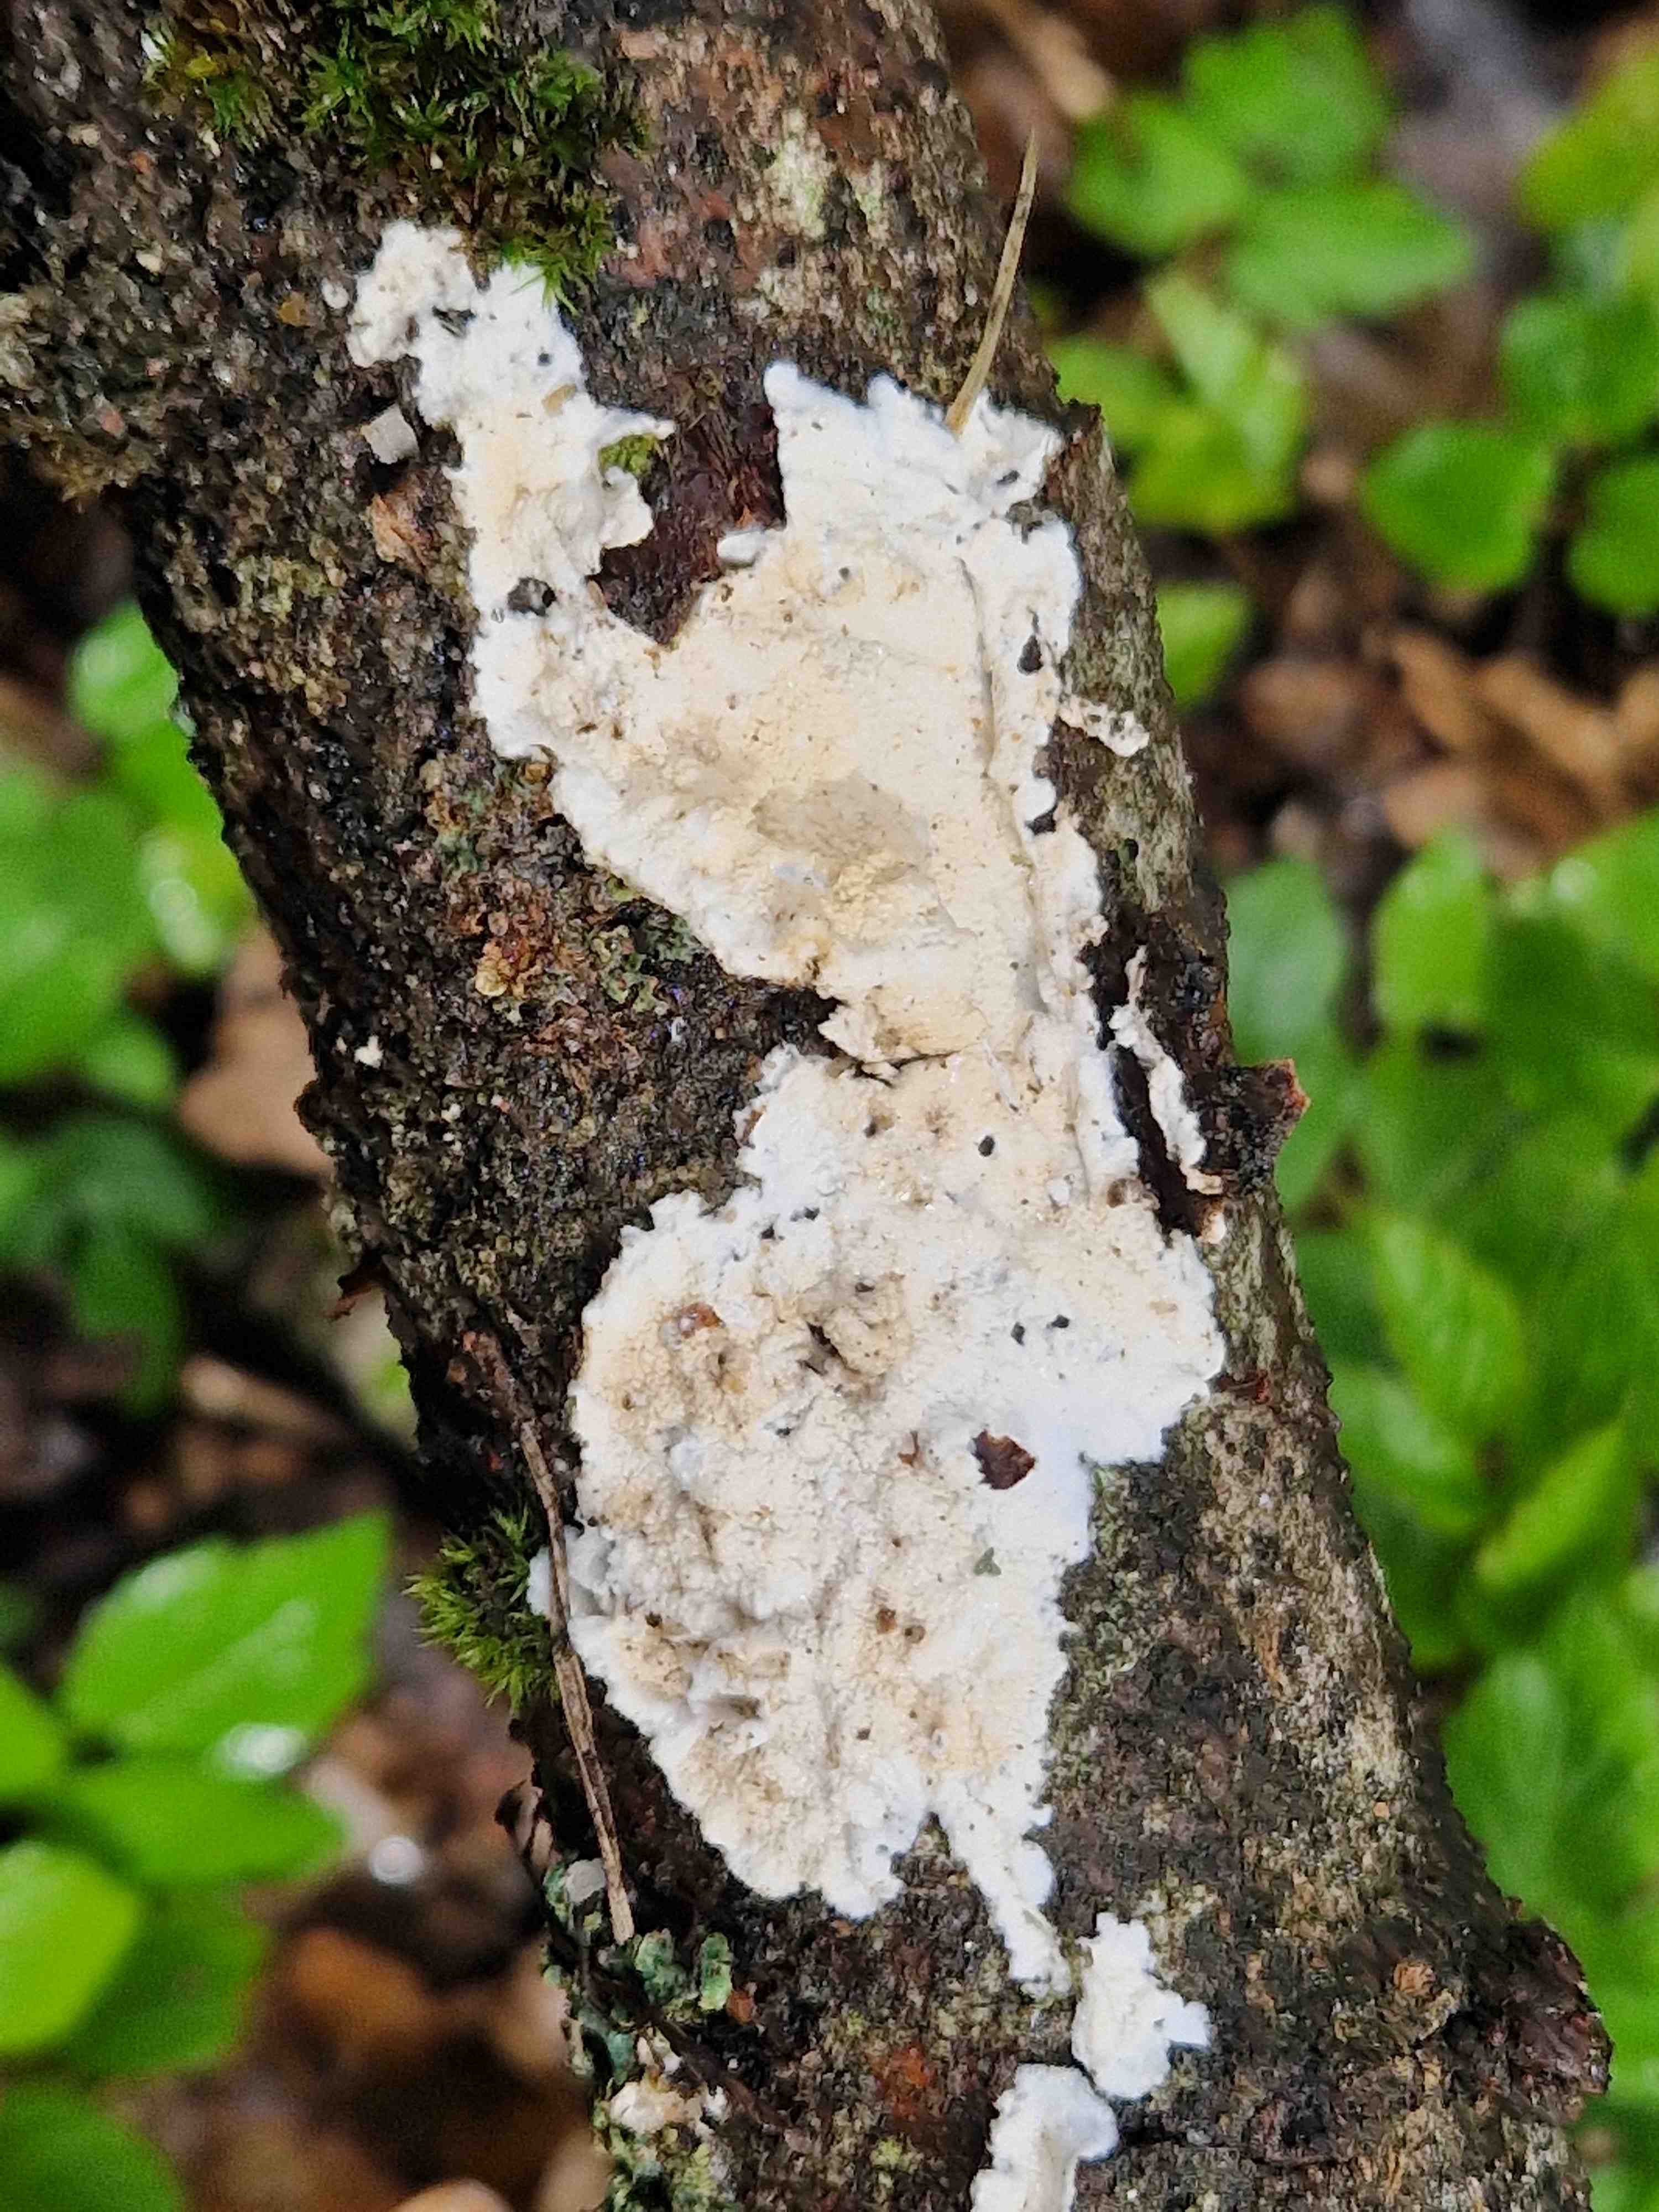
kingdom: Fungi
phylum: Basidiomycota
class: Agaricomycetes
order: Polyporales
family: Irpicaceae
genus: Byssomerulius
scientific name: Byssomerulius corium
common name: læder-åresvamp
